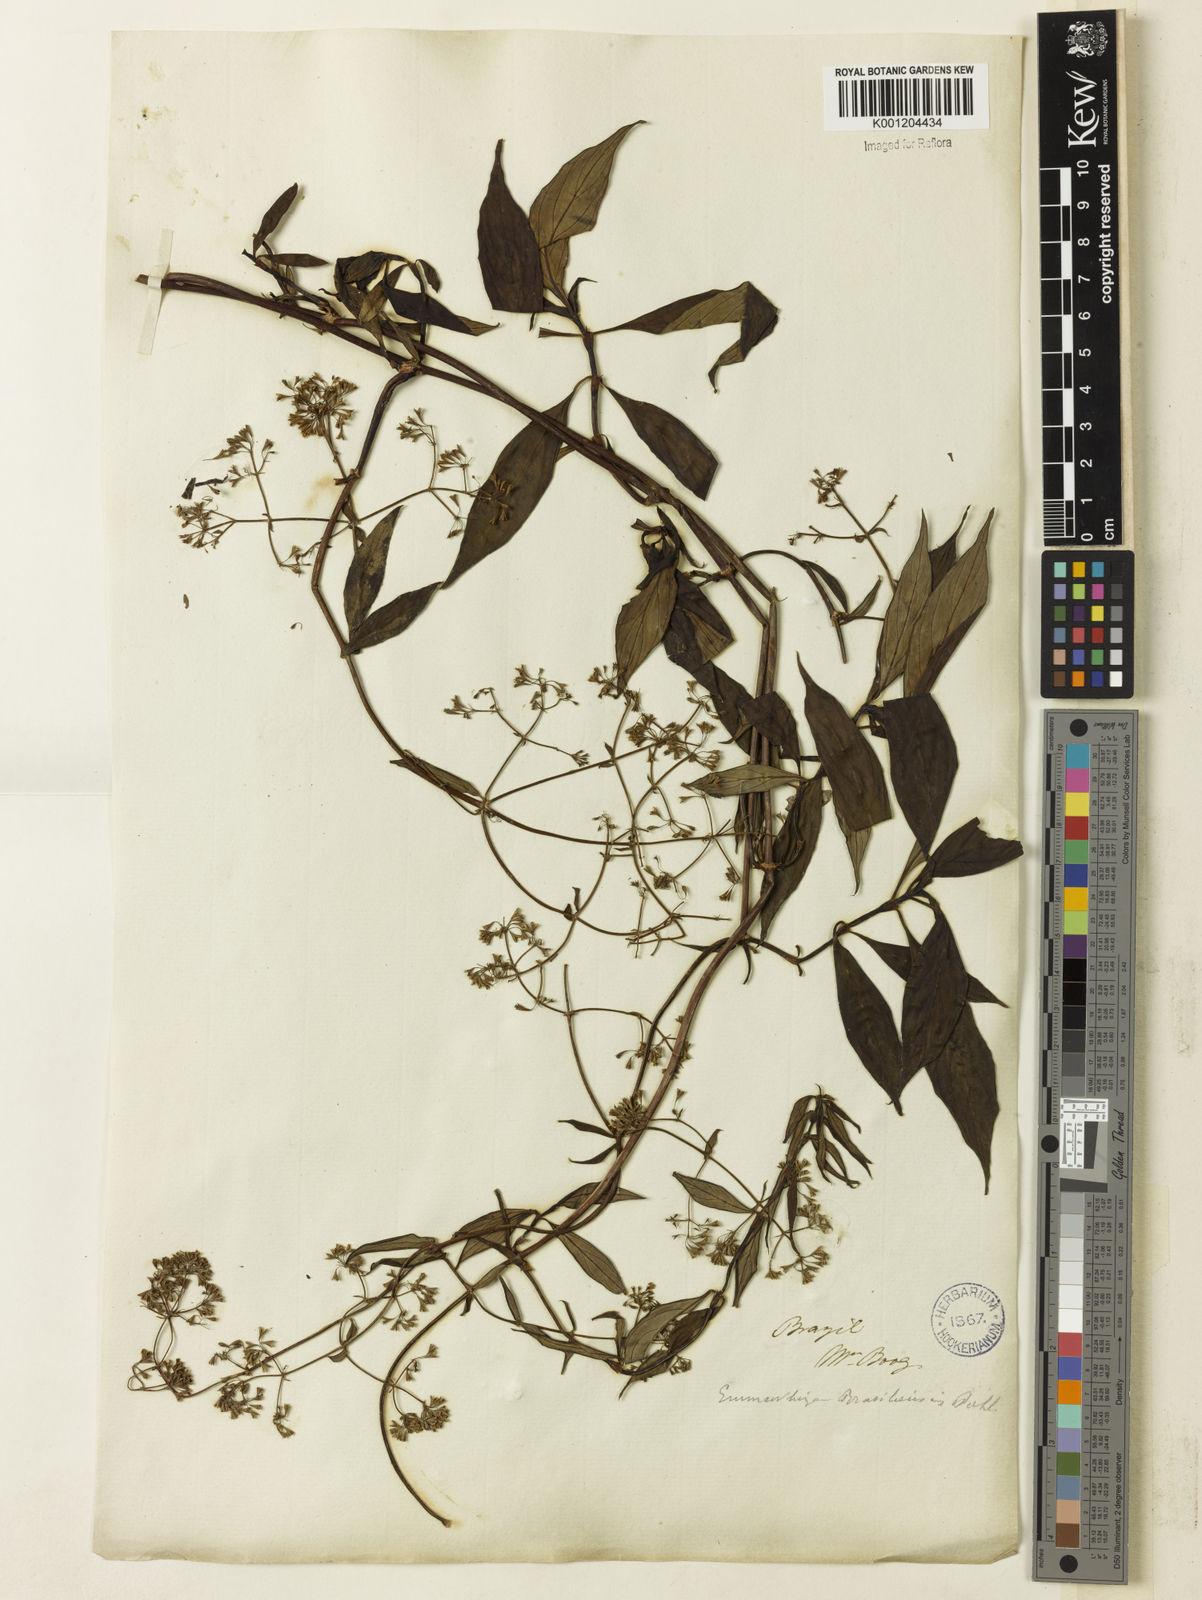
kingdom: Plantae
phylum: Tracheophyta
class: Magnoliopsida
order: Gentianales
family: Rubiaceae
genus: Emmeorhiza
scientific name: Emmeorhiza umbellata
